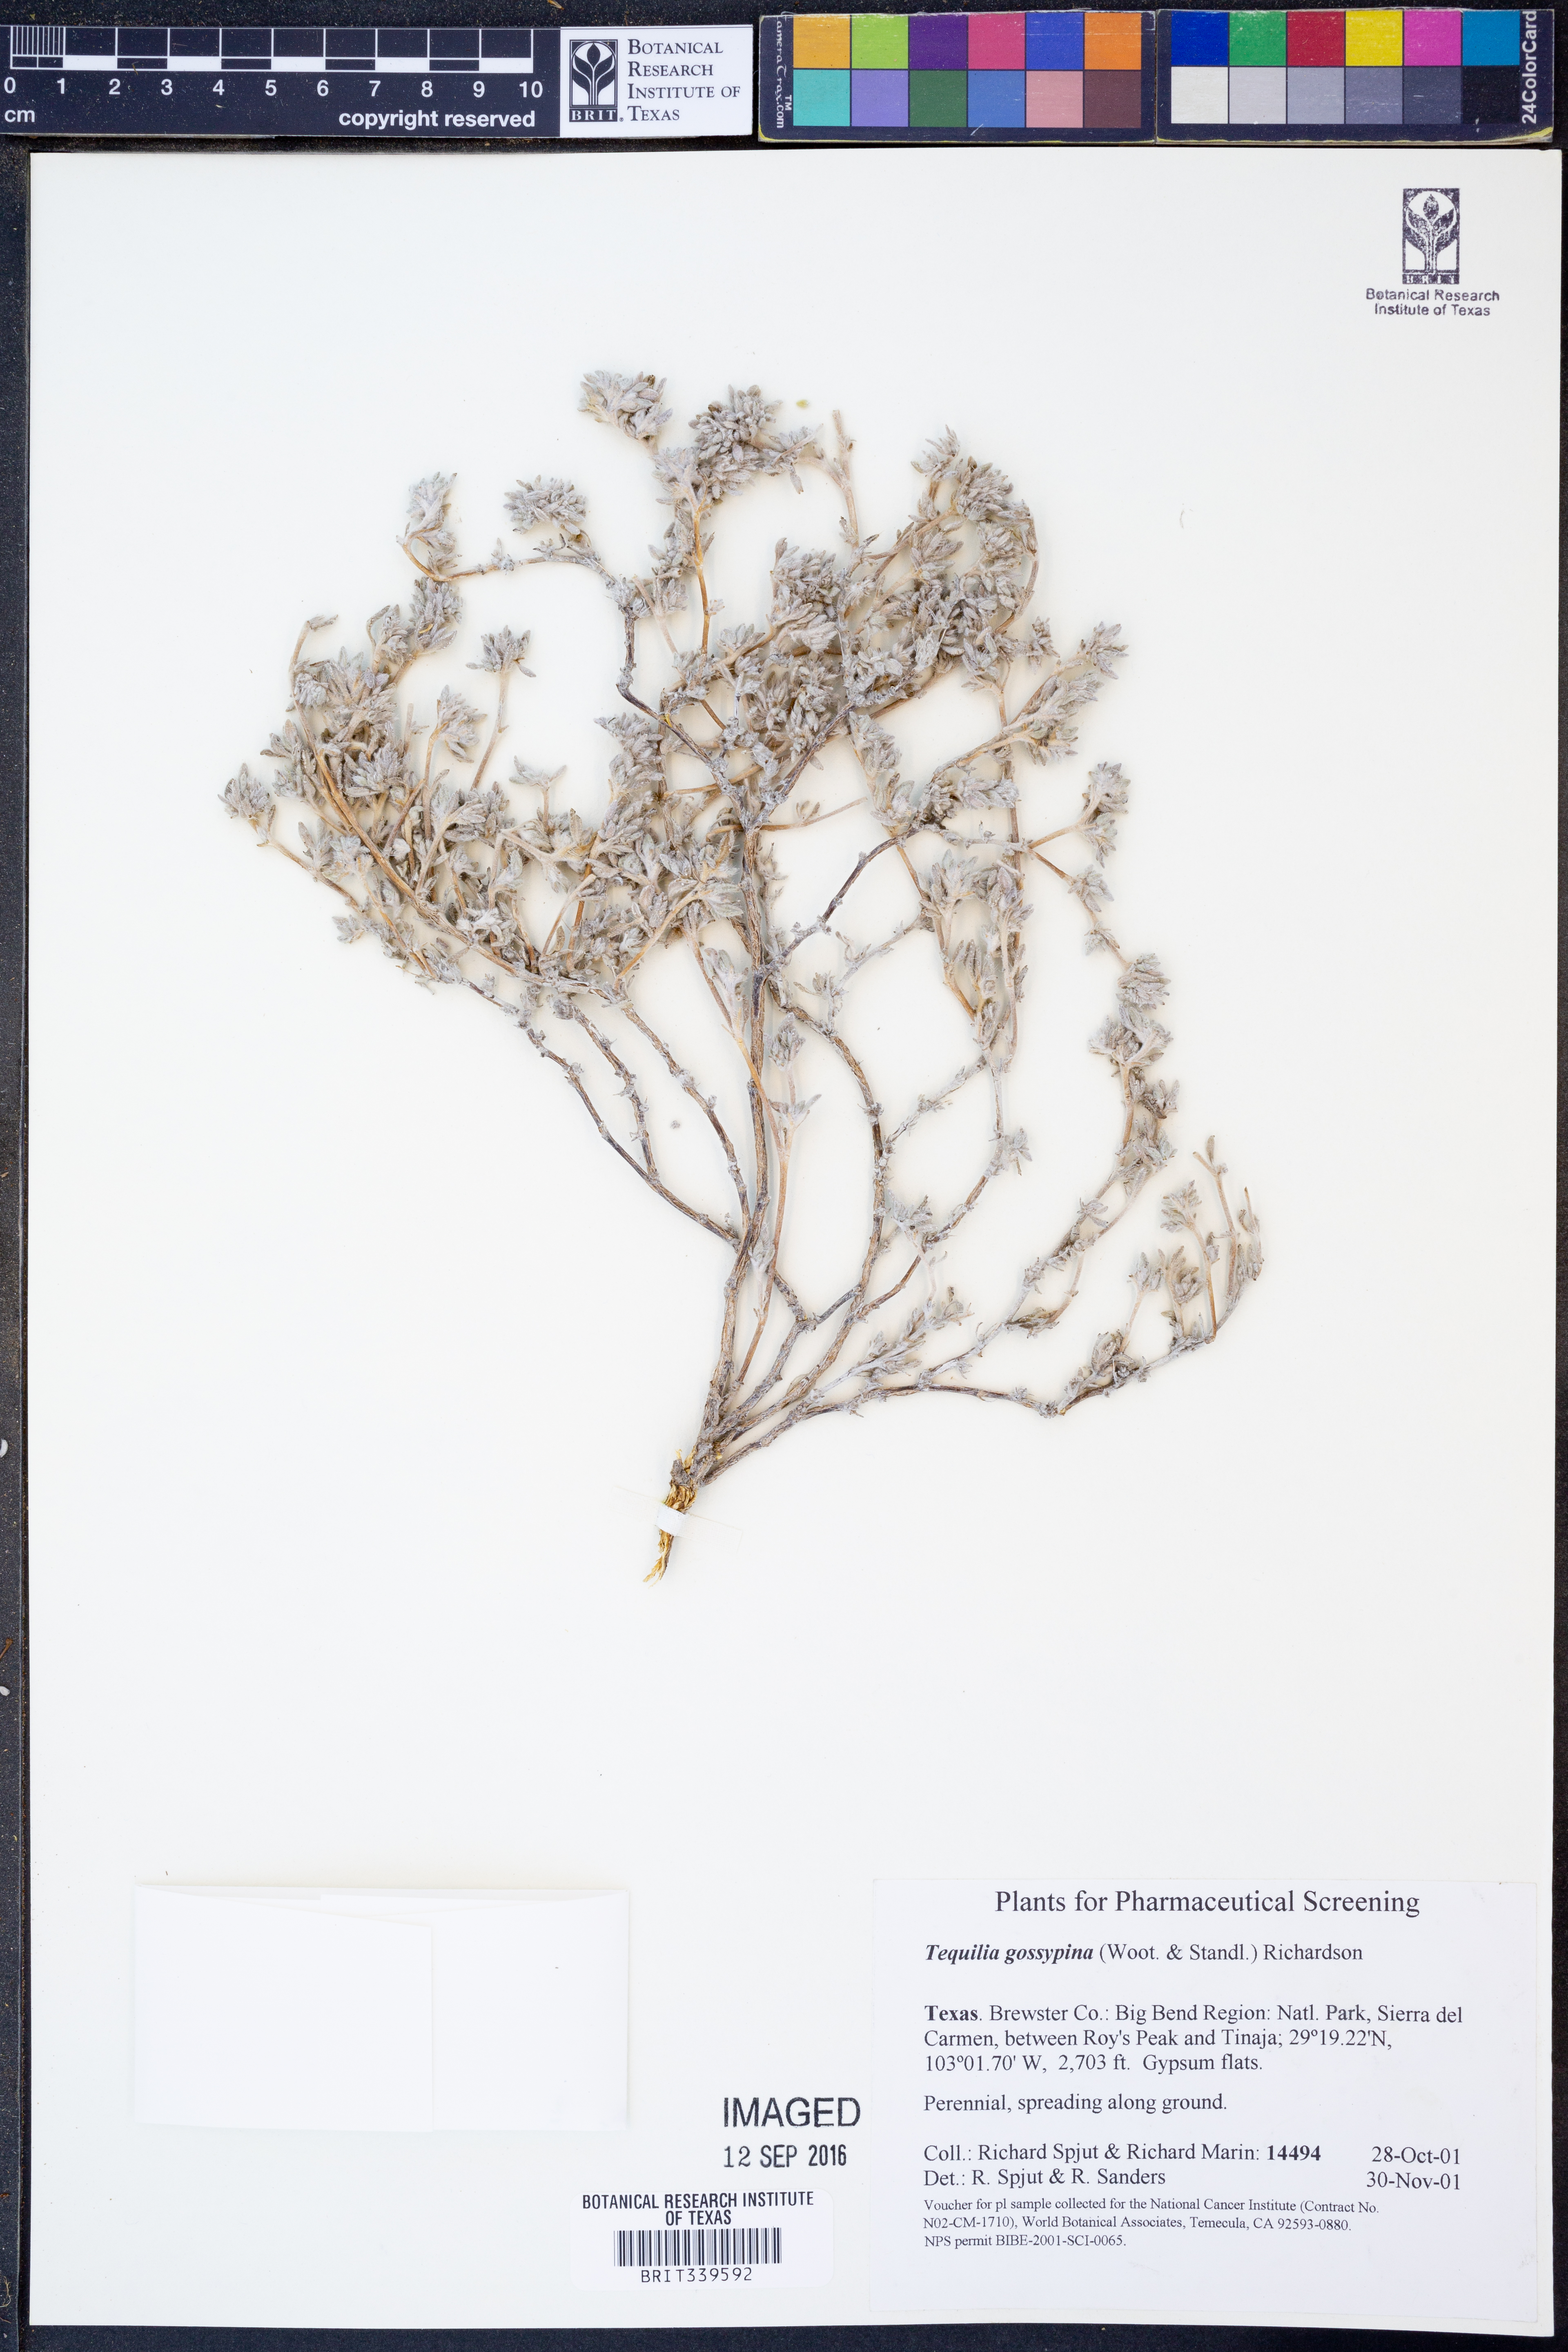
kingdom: Plantae
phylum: Tracheophyta
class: Magnoliopsida
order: Boraginales
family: Ehretiaceae
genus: Tiquilia
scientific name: Tiquilia gossypina
